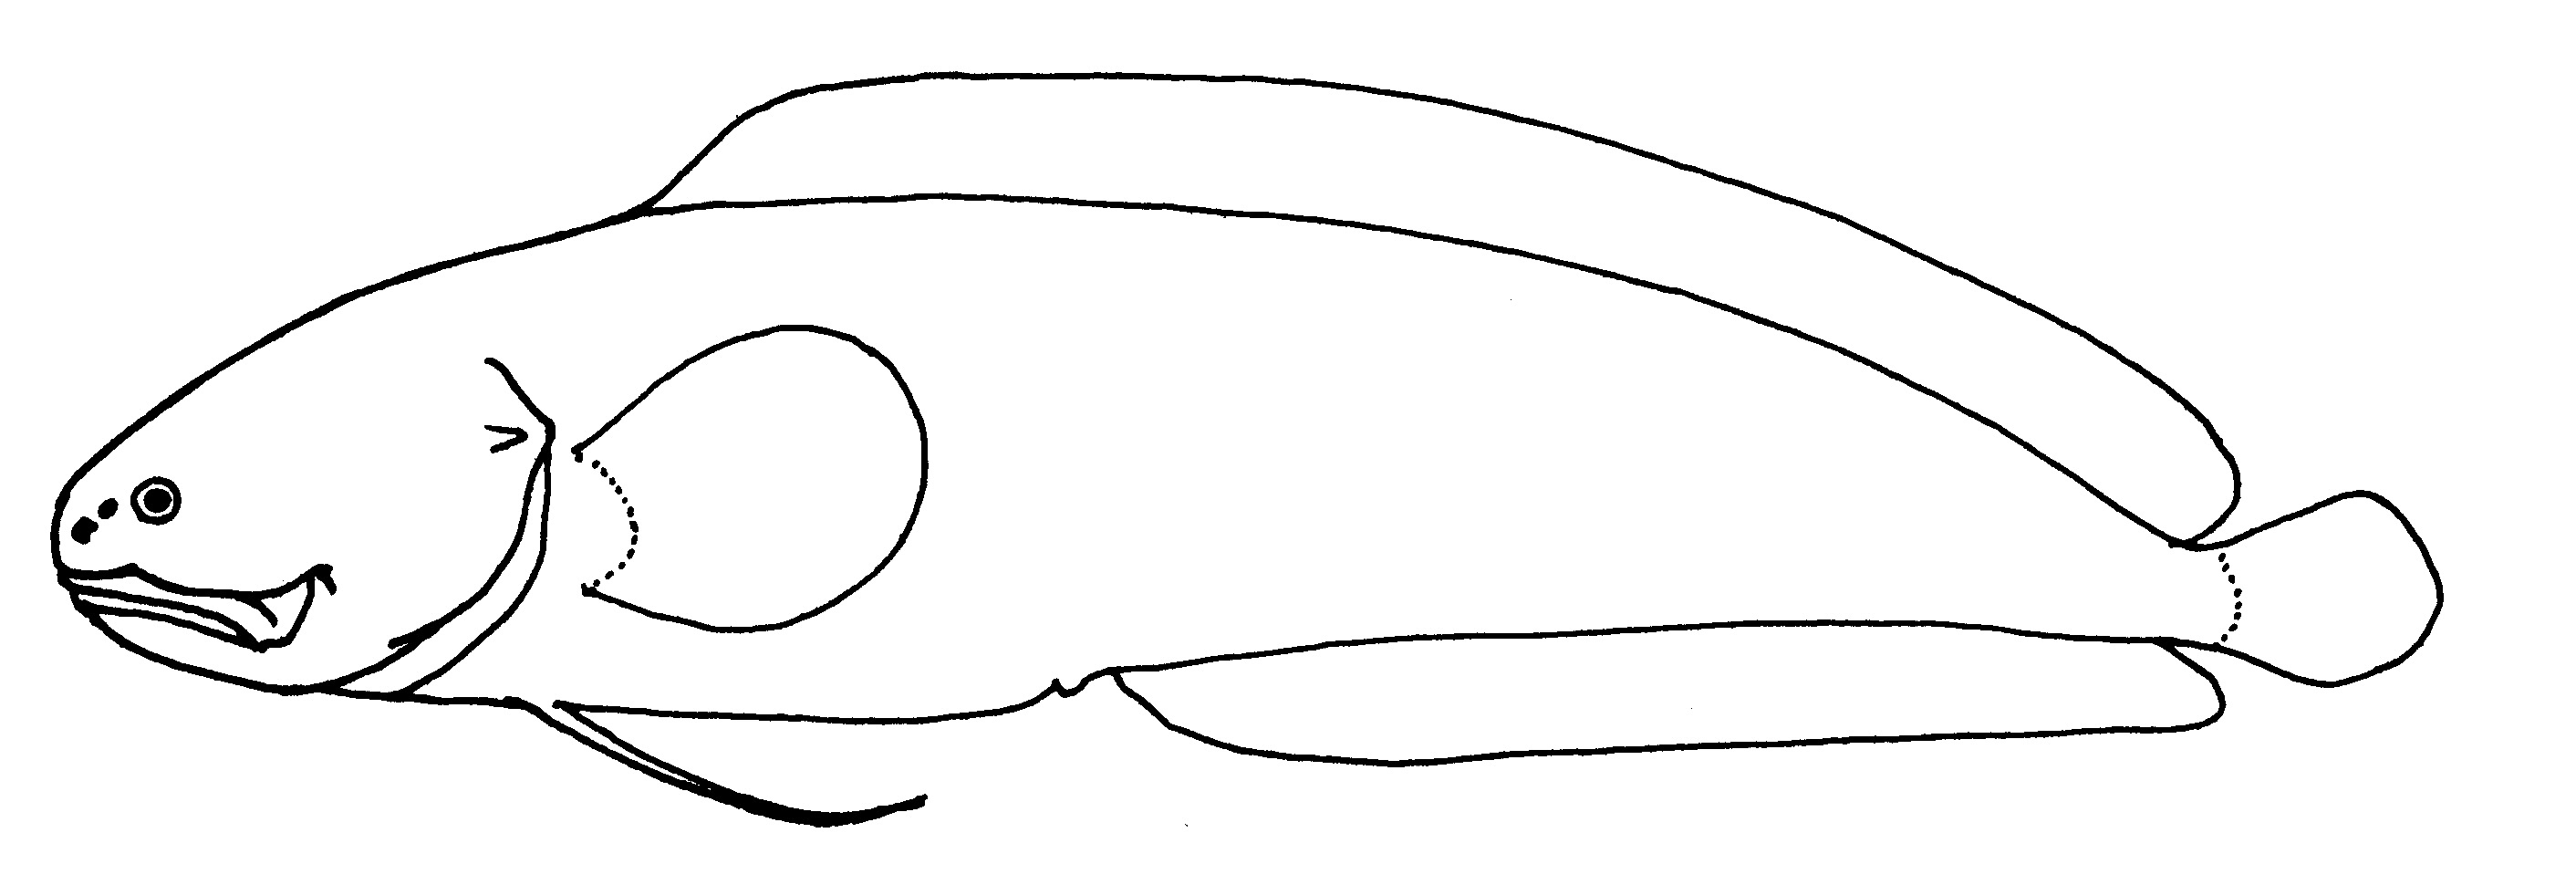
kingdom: Animalia
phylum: Chordata
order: Ophidiiformes
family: Bythitidae
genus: Dinematichthys
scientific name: Dinematichthys iluocoeteoides
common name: Small eye brotula
